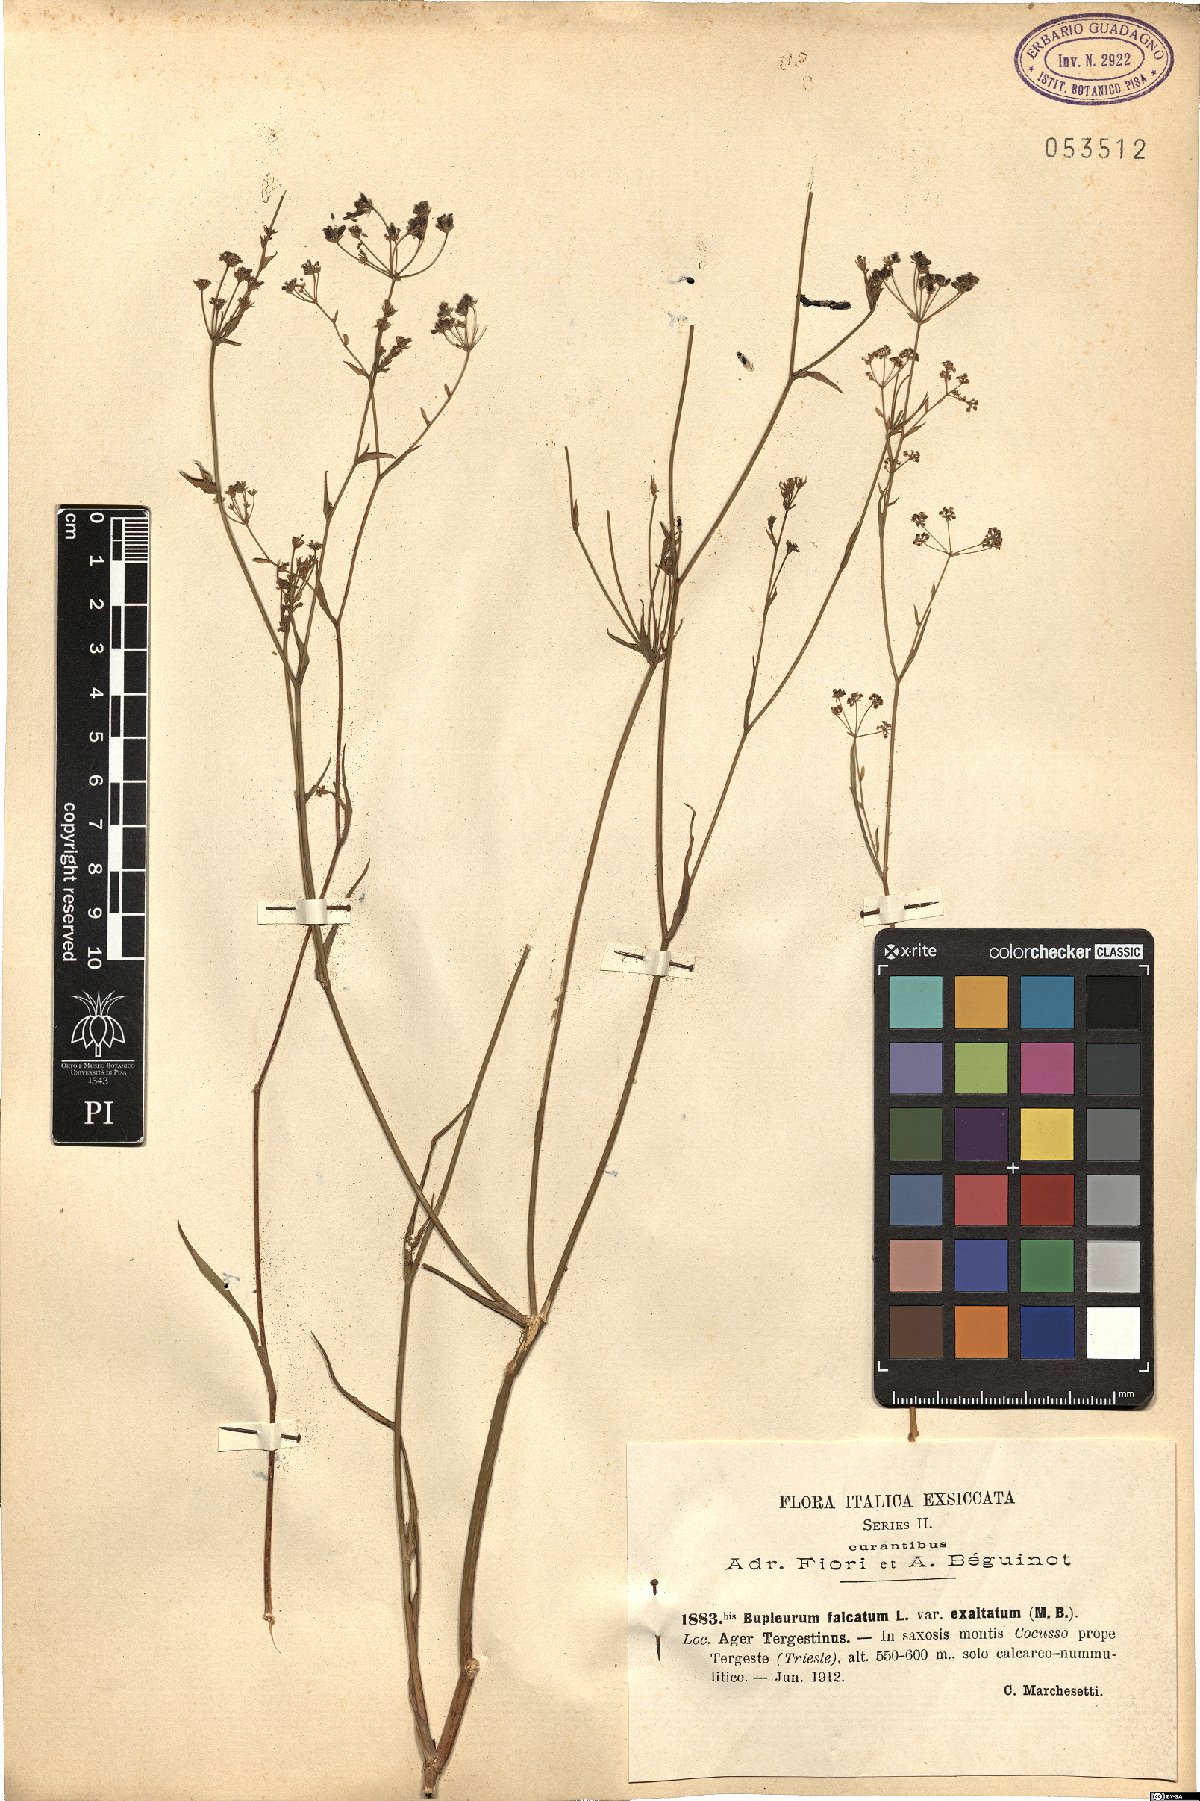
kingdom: Plantae
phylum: Tracheophyta
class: Magnoliopsida
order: Apiales
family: Apiaceae
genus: Bupleurum
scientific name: Bupleurum exaltatum
